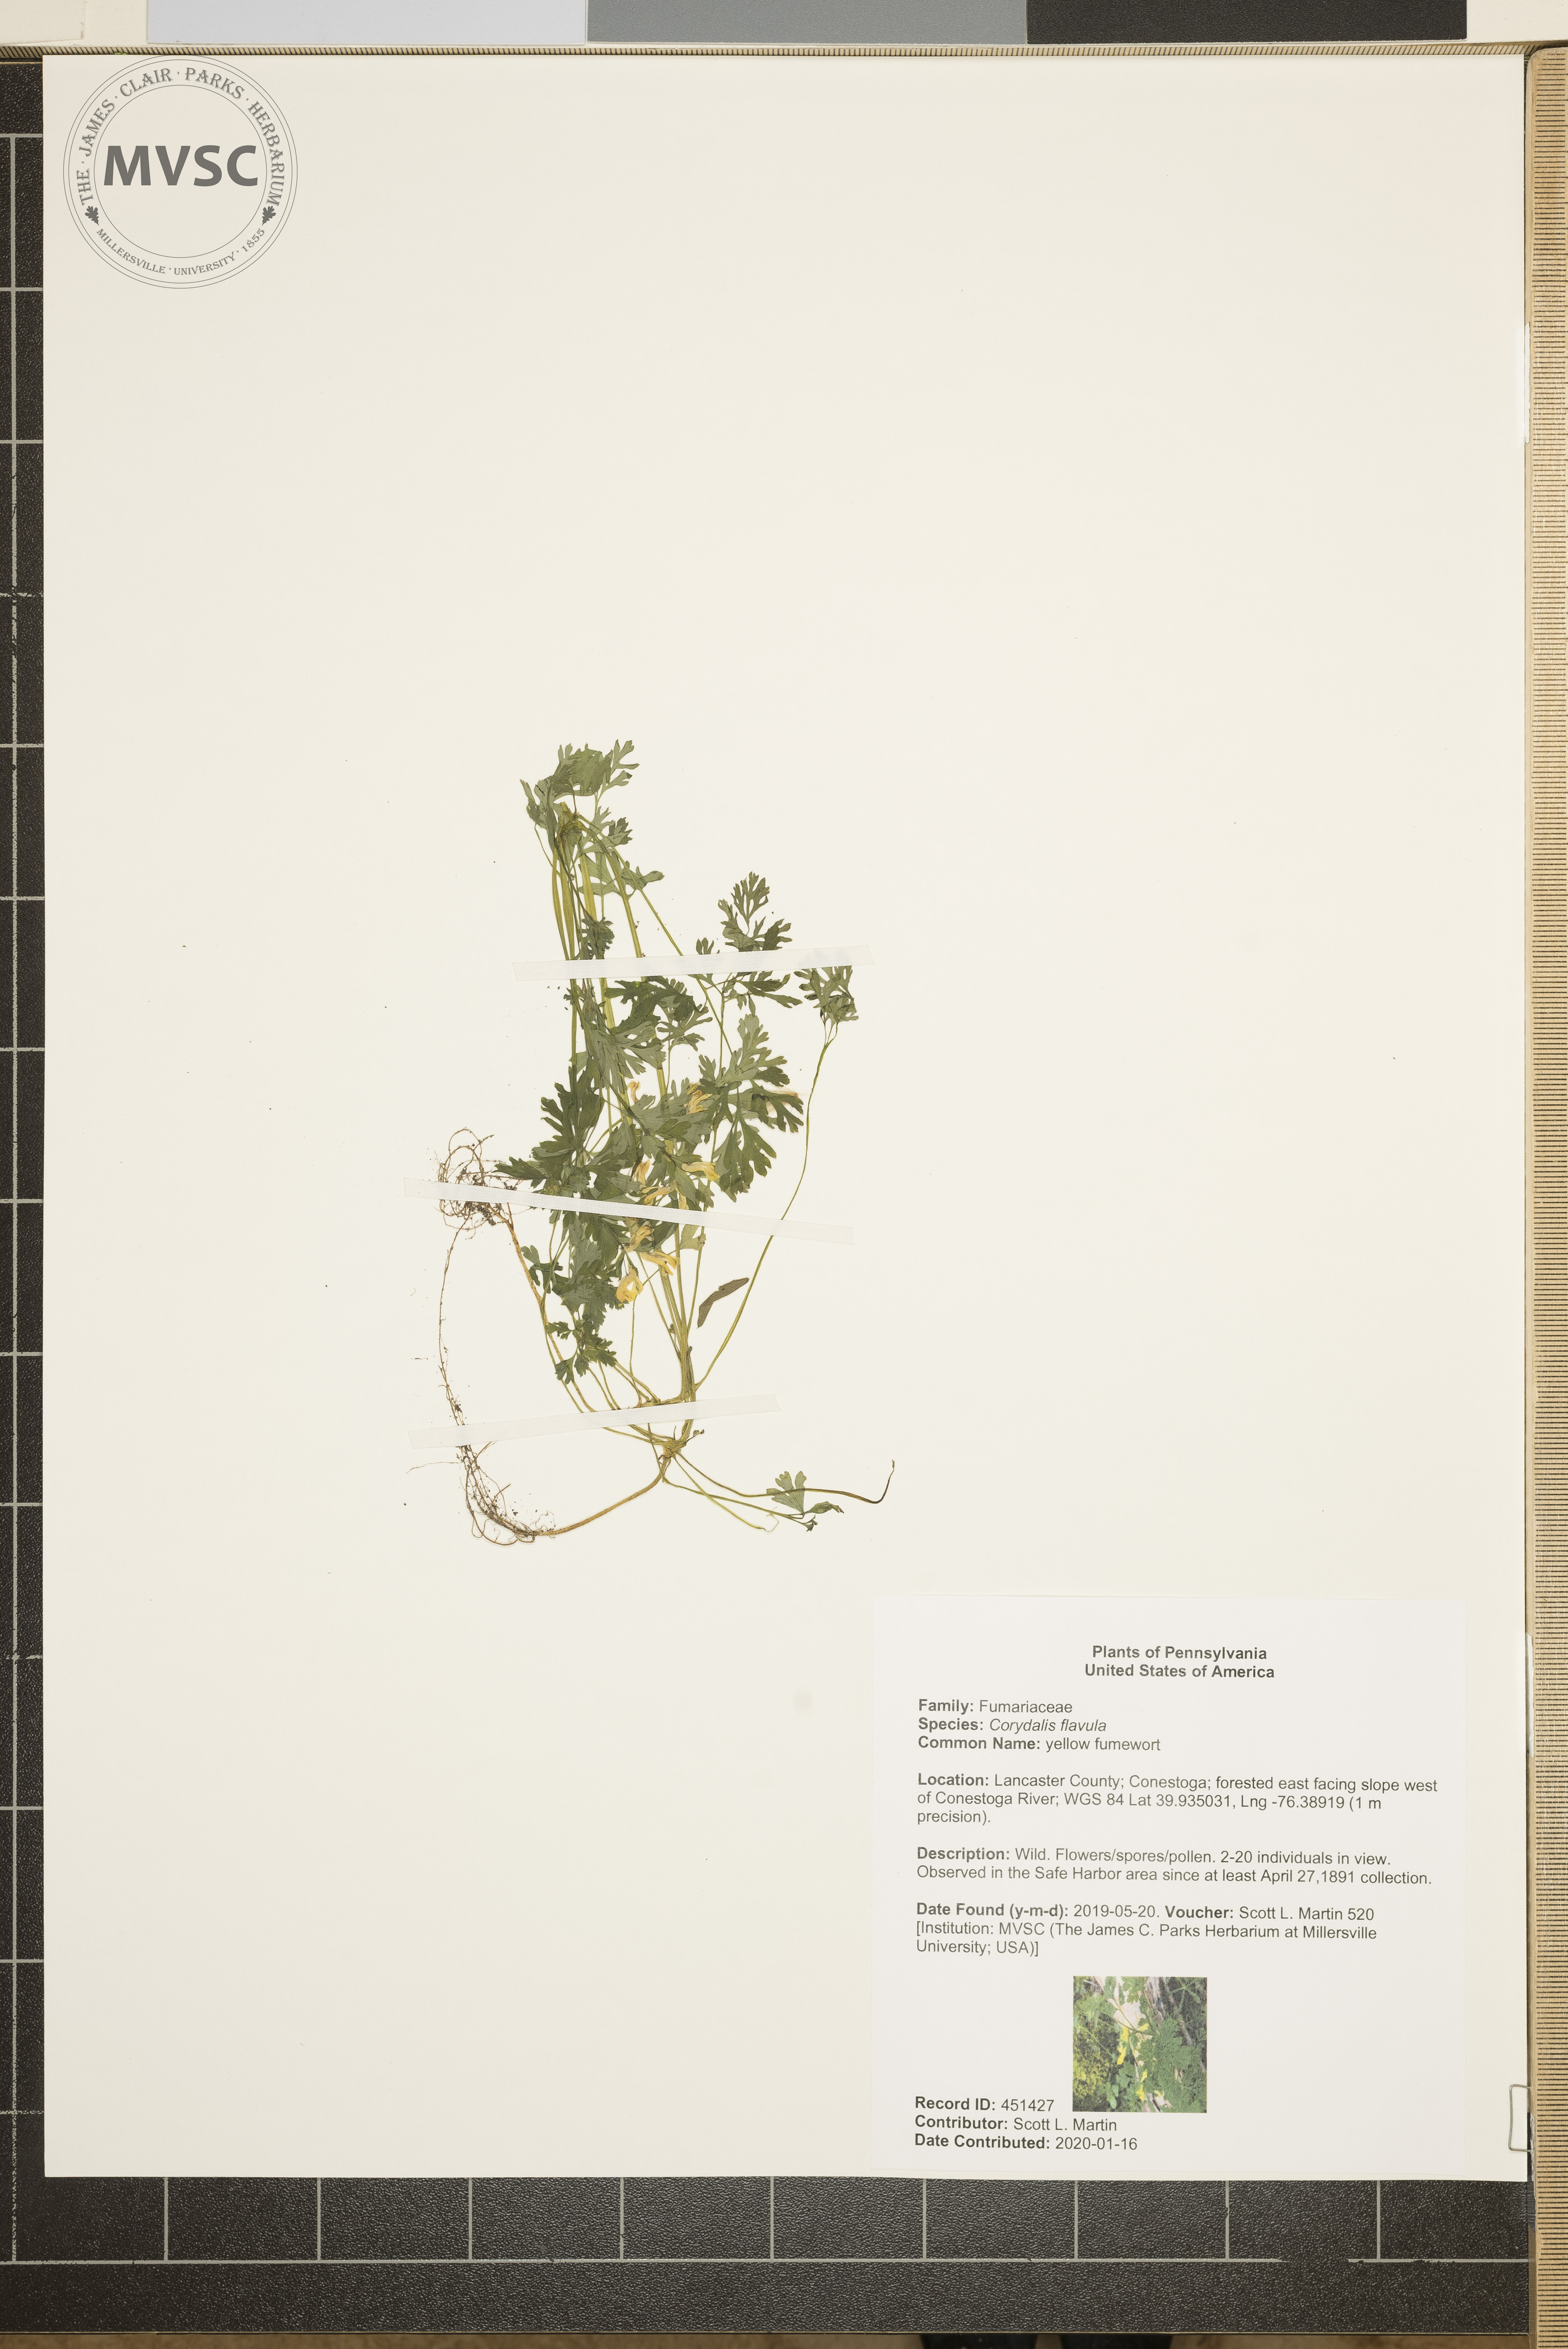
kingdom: Plantae
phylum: Tracheophyta
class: Magnoliopsida
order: Ranunculales
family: Papaveraceae
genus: Corydalis
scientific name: Corydalis flavula
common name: yellow fumewort
